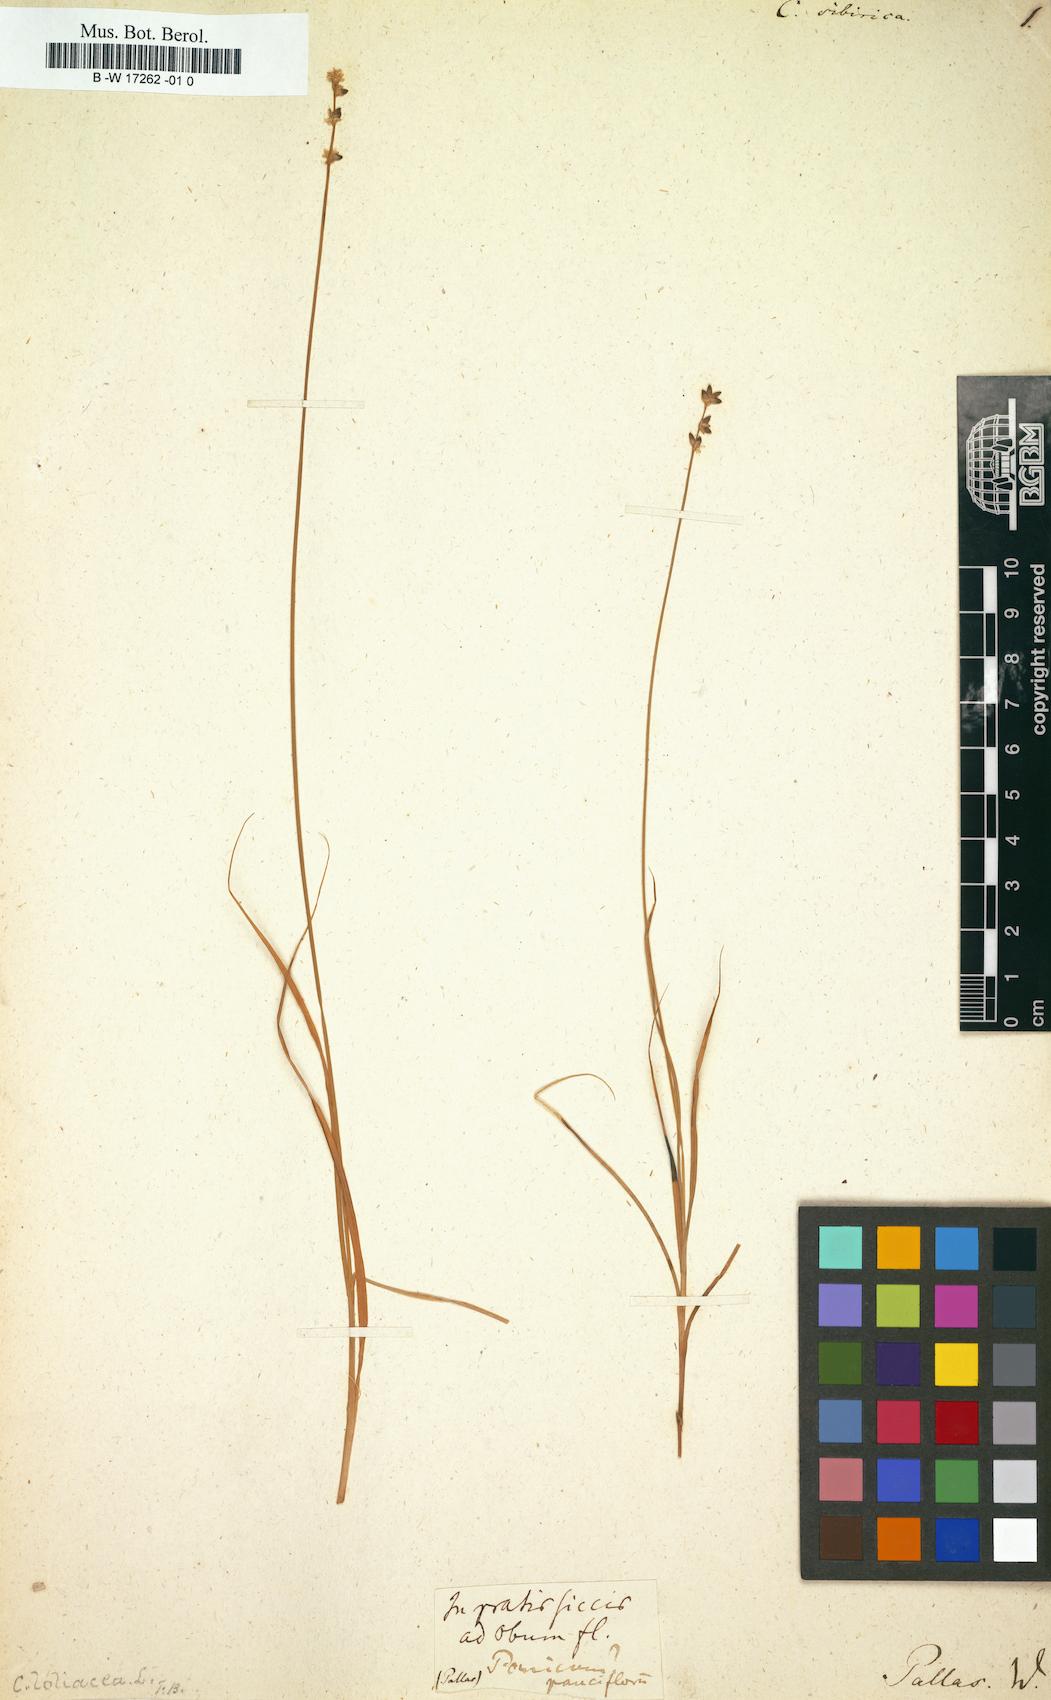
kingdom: Plantae
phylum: Tracheophyta
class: Liliopsida
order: Poales
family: Cyperaceae
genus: Carex
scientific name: Carex loliacea
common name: Ryegrass sedge
